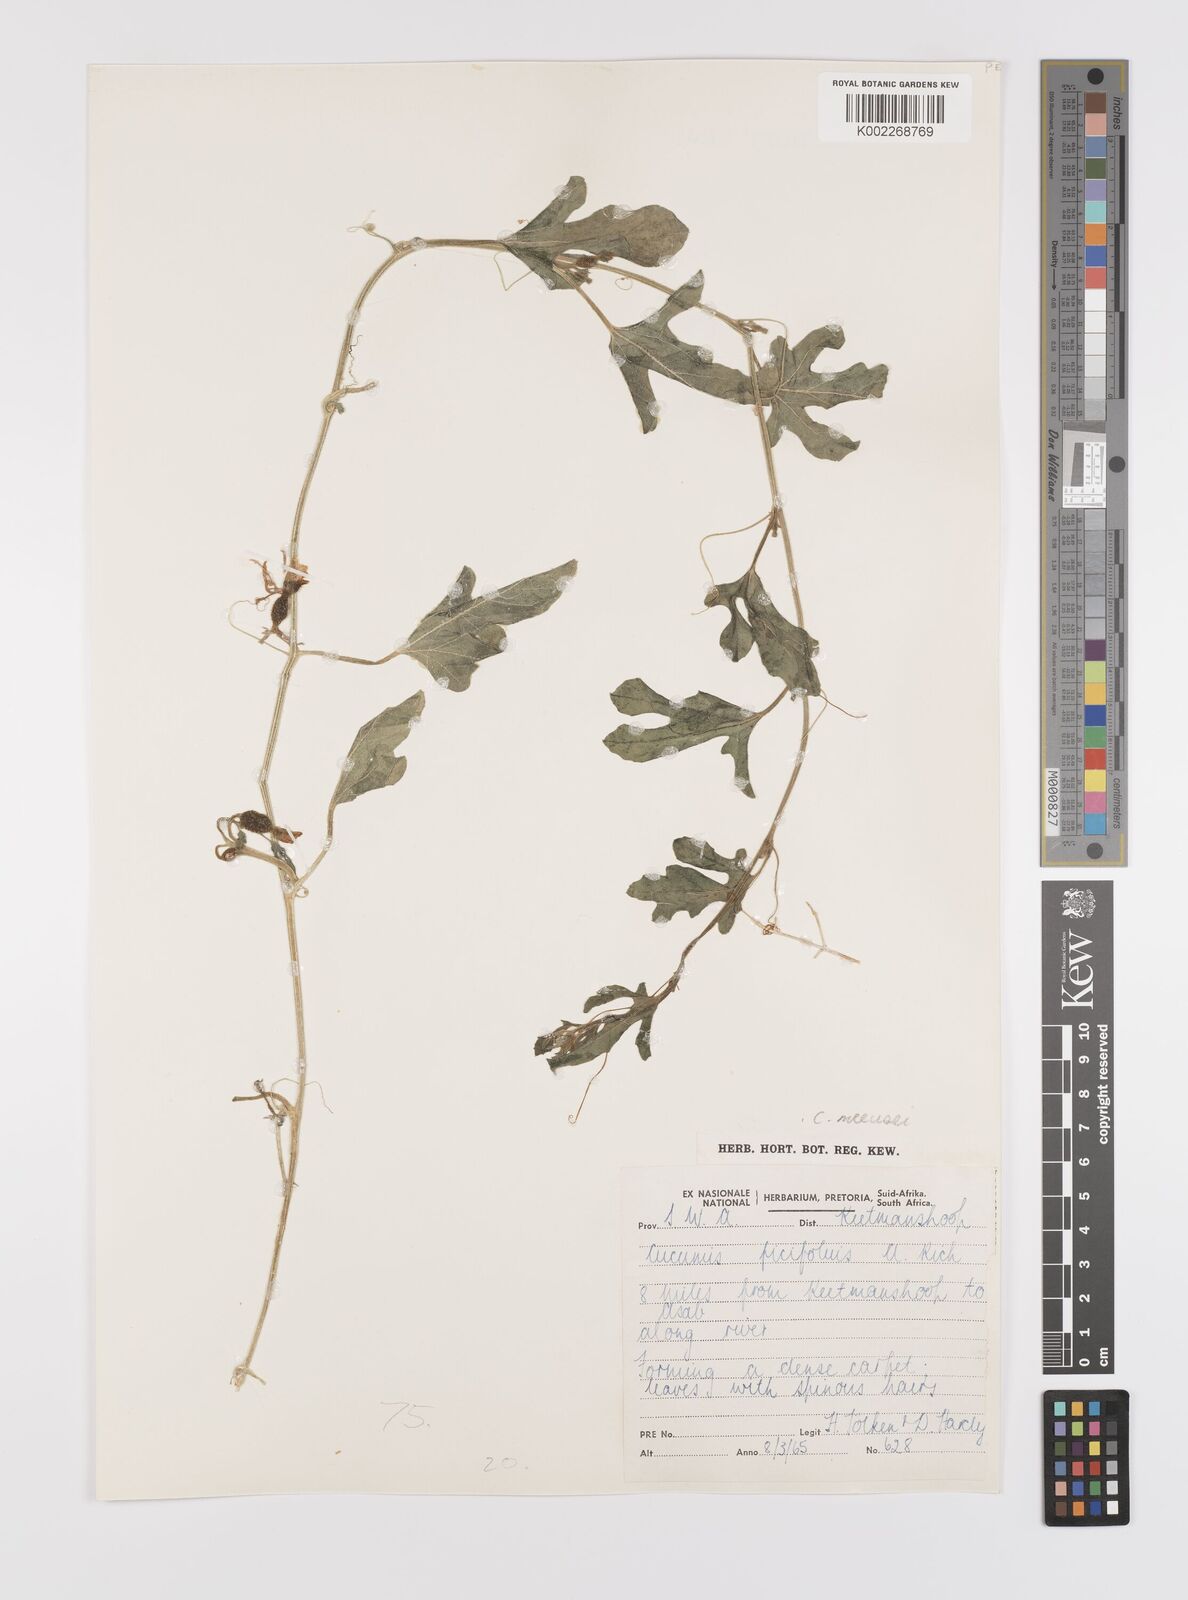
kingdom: Plantae
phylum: Tracheophyta
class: Magnoliopsida
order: Cucurbitales
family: Cucurbitaceae
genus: Cucumis
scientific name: Cucumis meeusei
